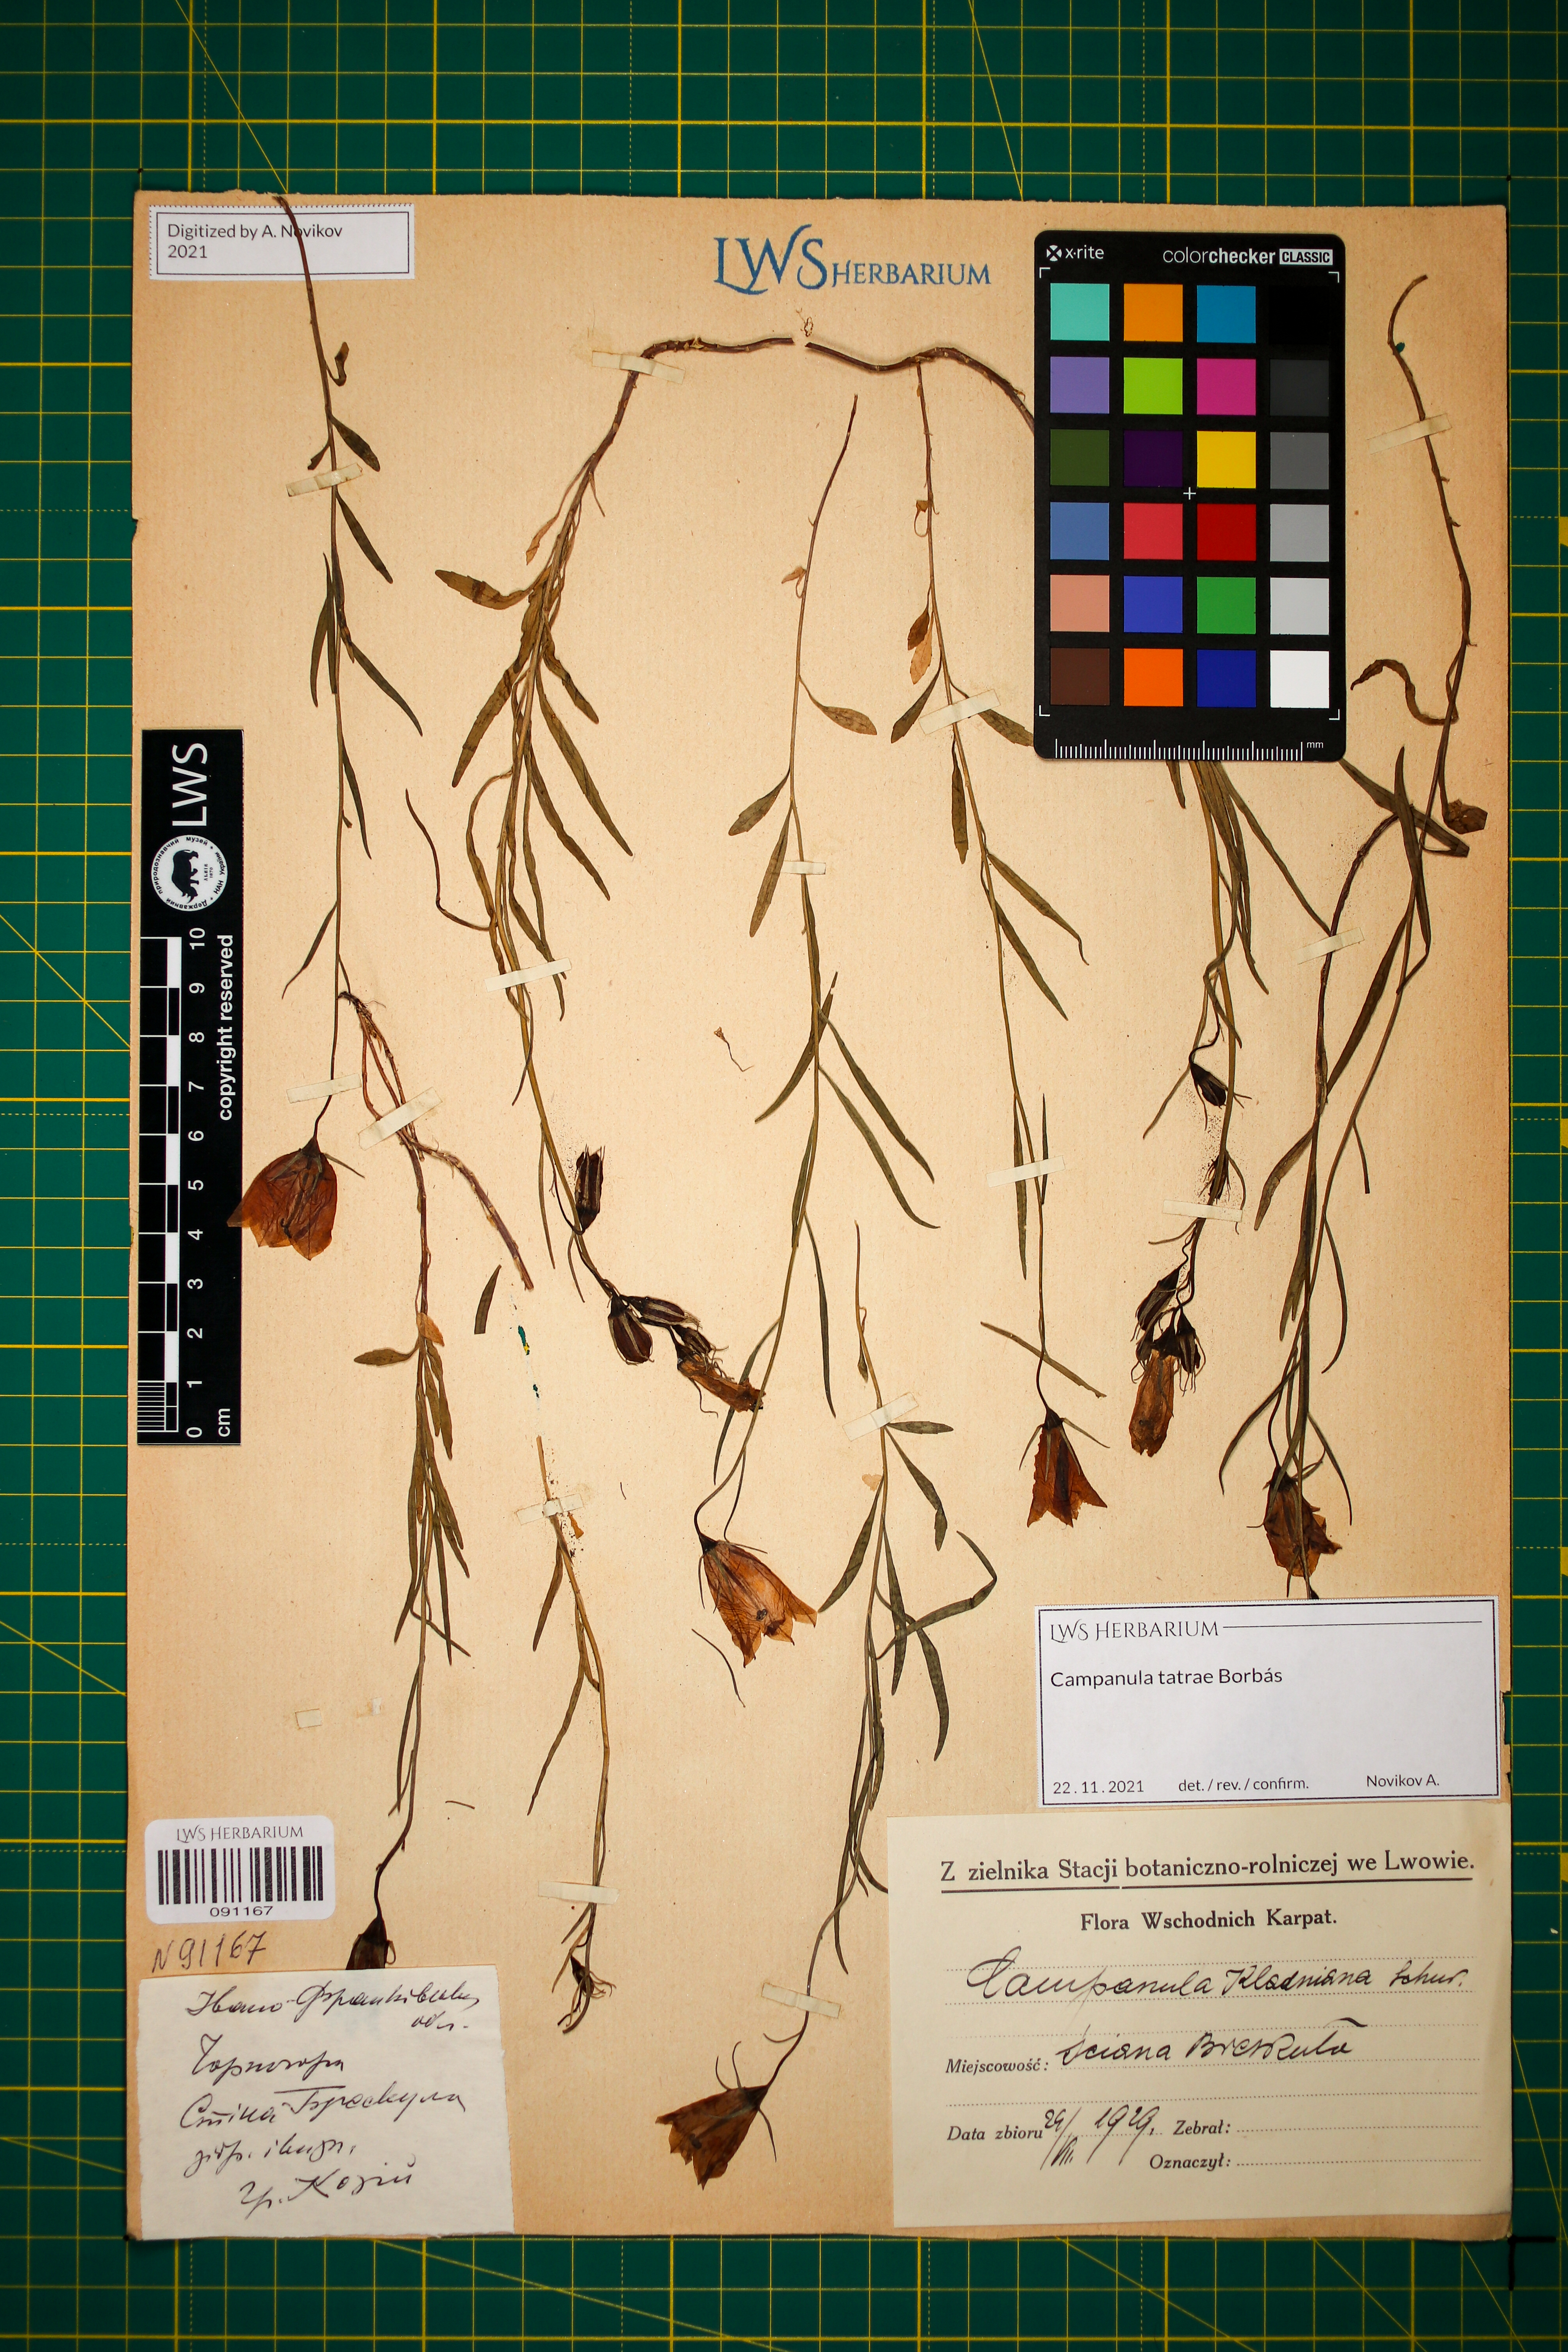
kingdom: Plantae
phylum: Tracheophyta
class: Magnoliopsida
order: Asterales
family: Campanulaceae
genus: Campanula
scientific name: Campanula kladniana
